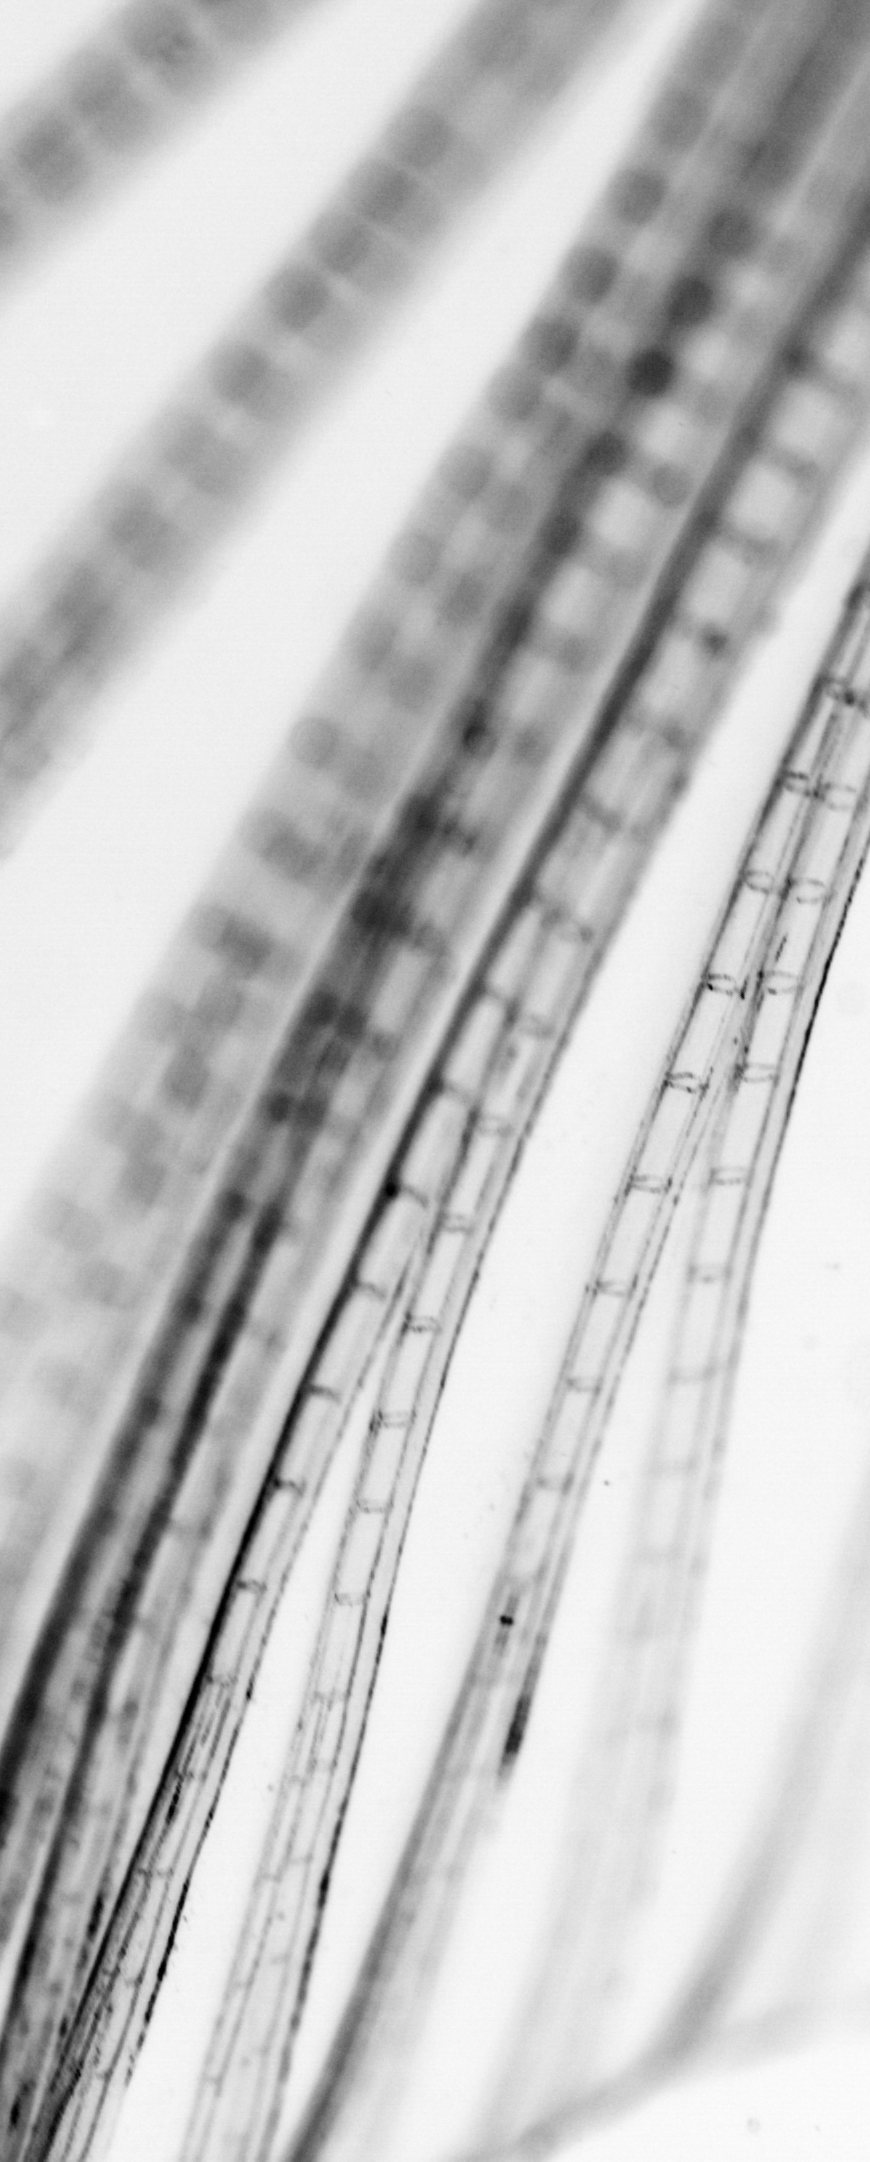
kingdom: Animalia
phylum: Chordata
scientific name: Chordata
